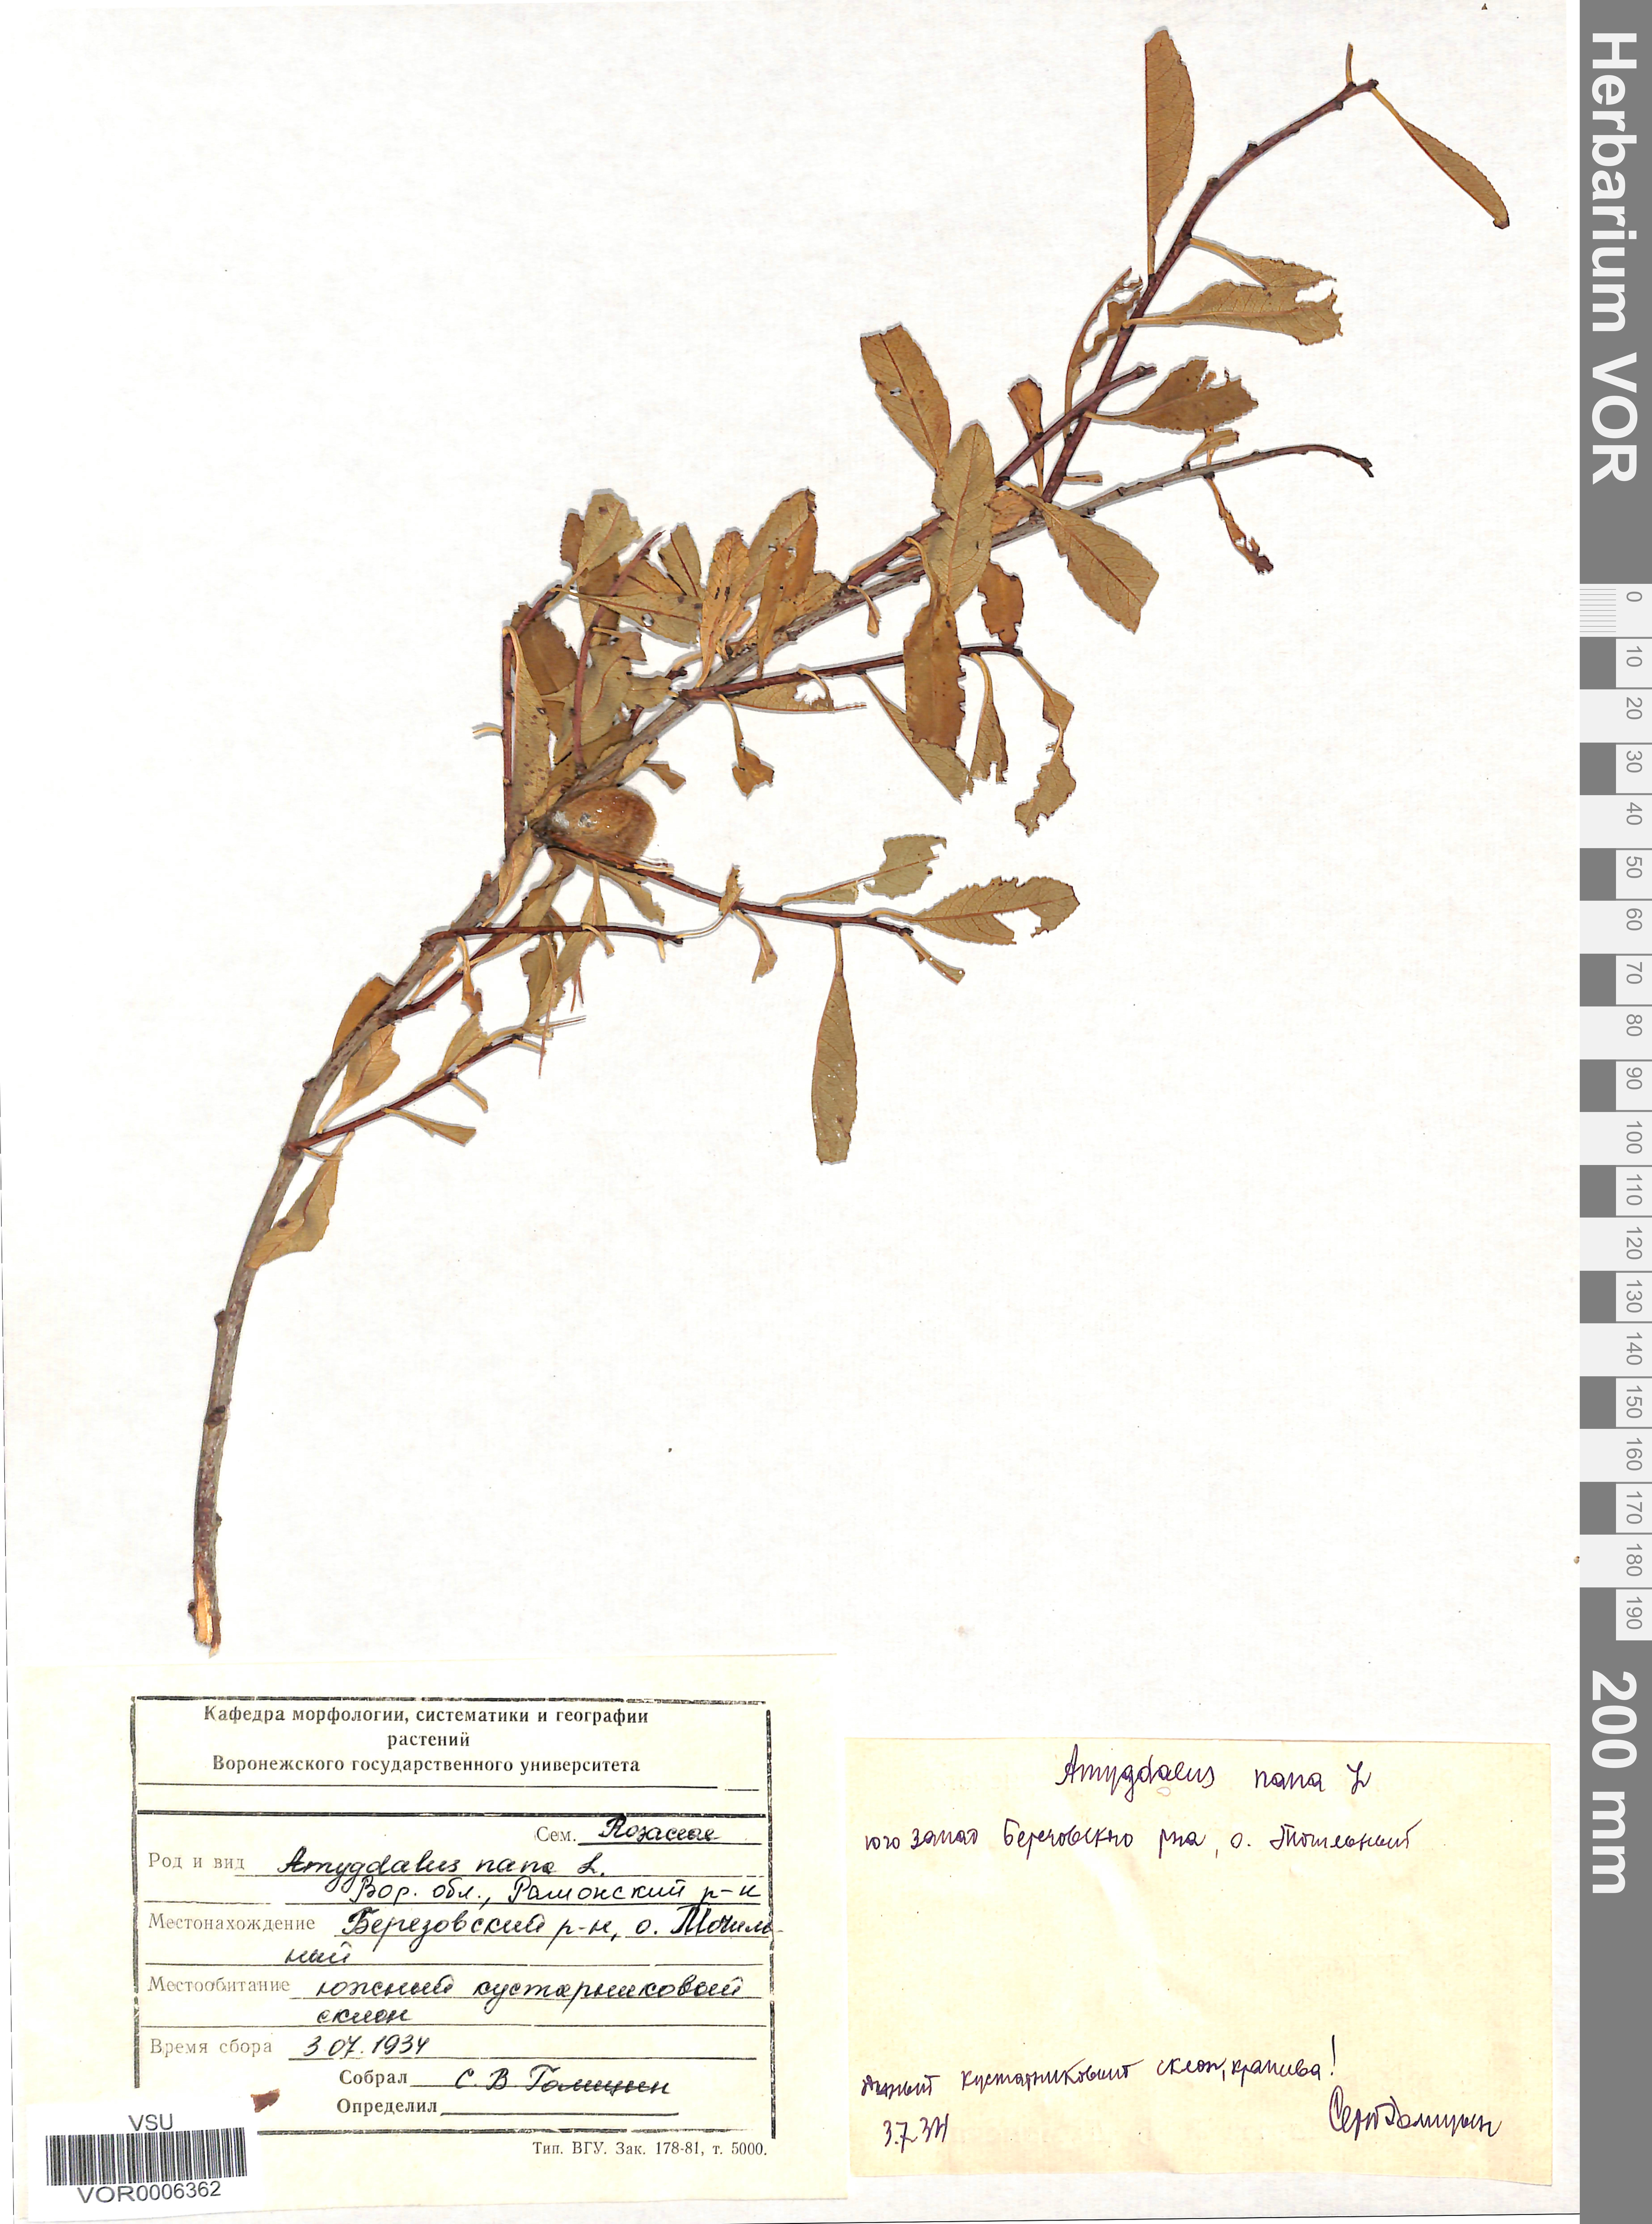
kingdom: Plantae
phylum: Tracheophyta
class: Magnoliopsida
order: Rosales
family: Rosaceae
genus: Prunus
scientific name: Prunus tenella
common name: Dwarf russian almond
